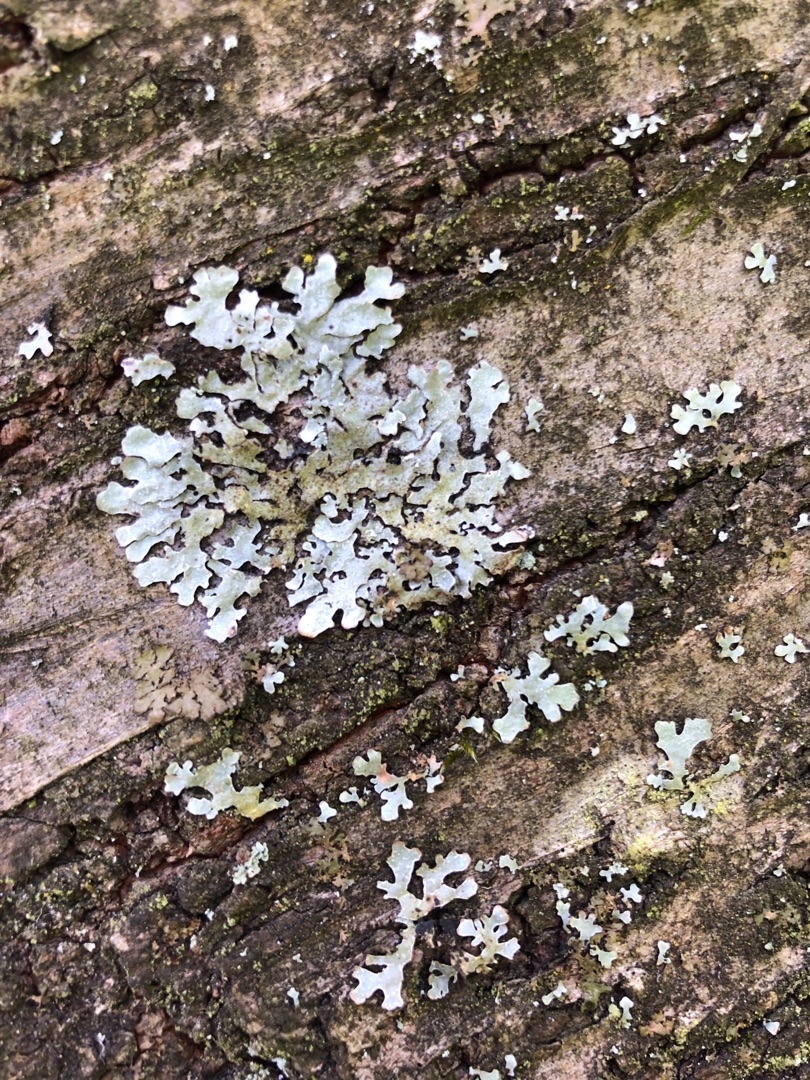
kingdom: Fungi
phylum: Ascomycota
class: Lecanoromycetes
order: Lecanorales
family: Parmeliaceae
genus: Parmelia
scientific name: Parmelia sulcata
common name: Rynket skållav
